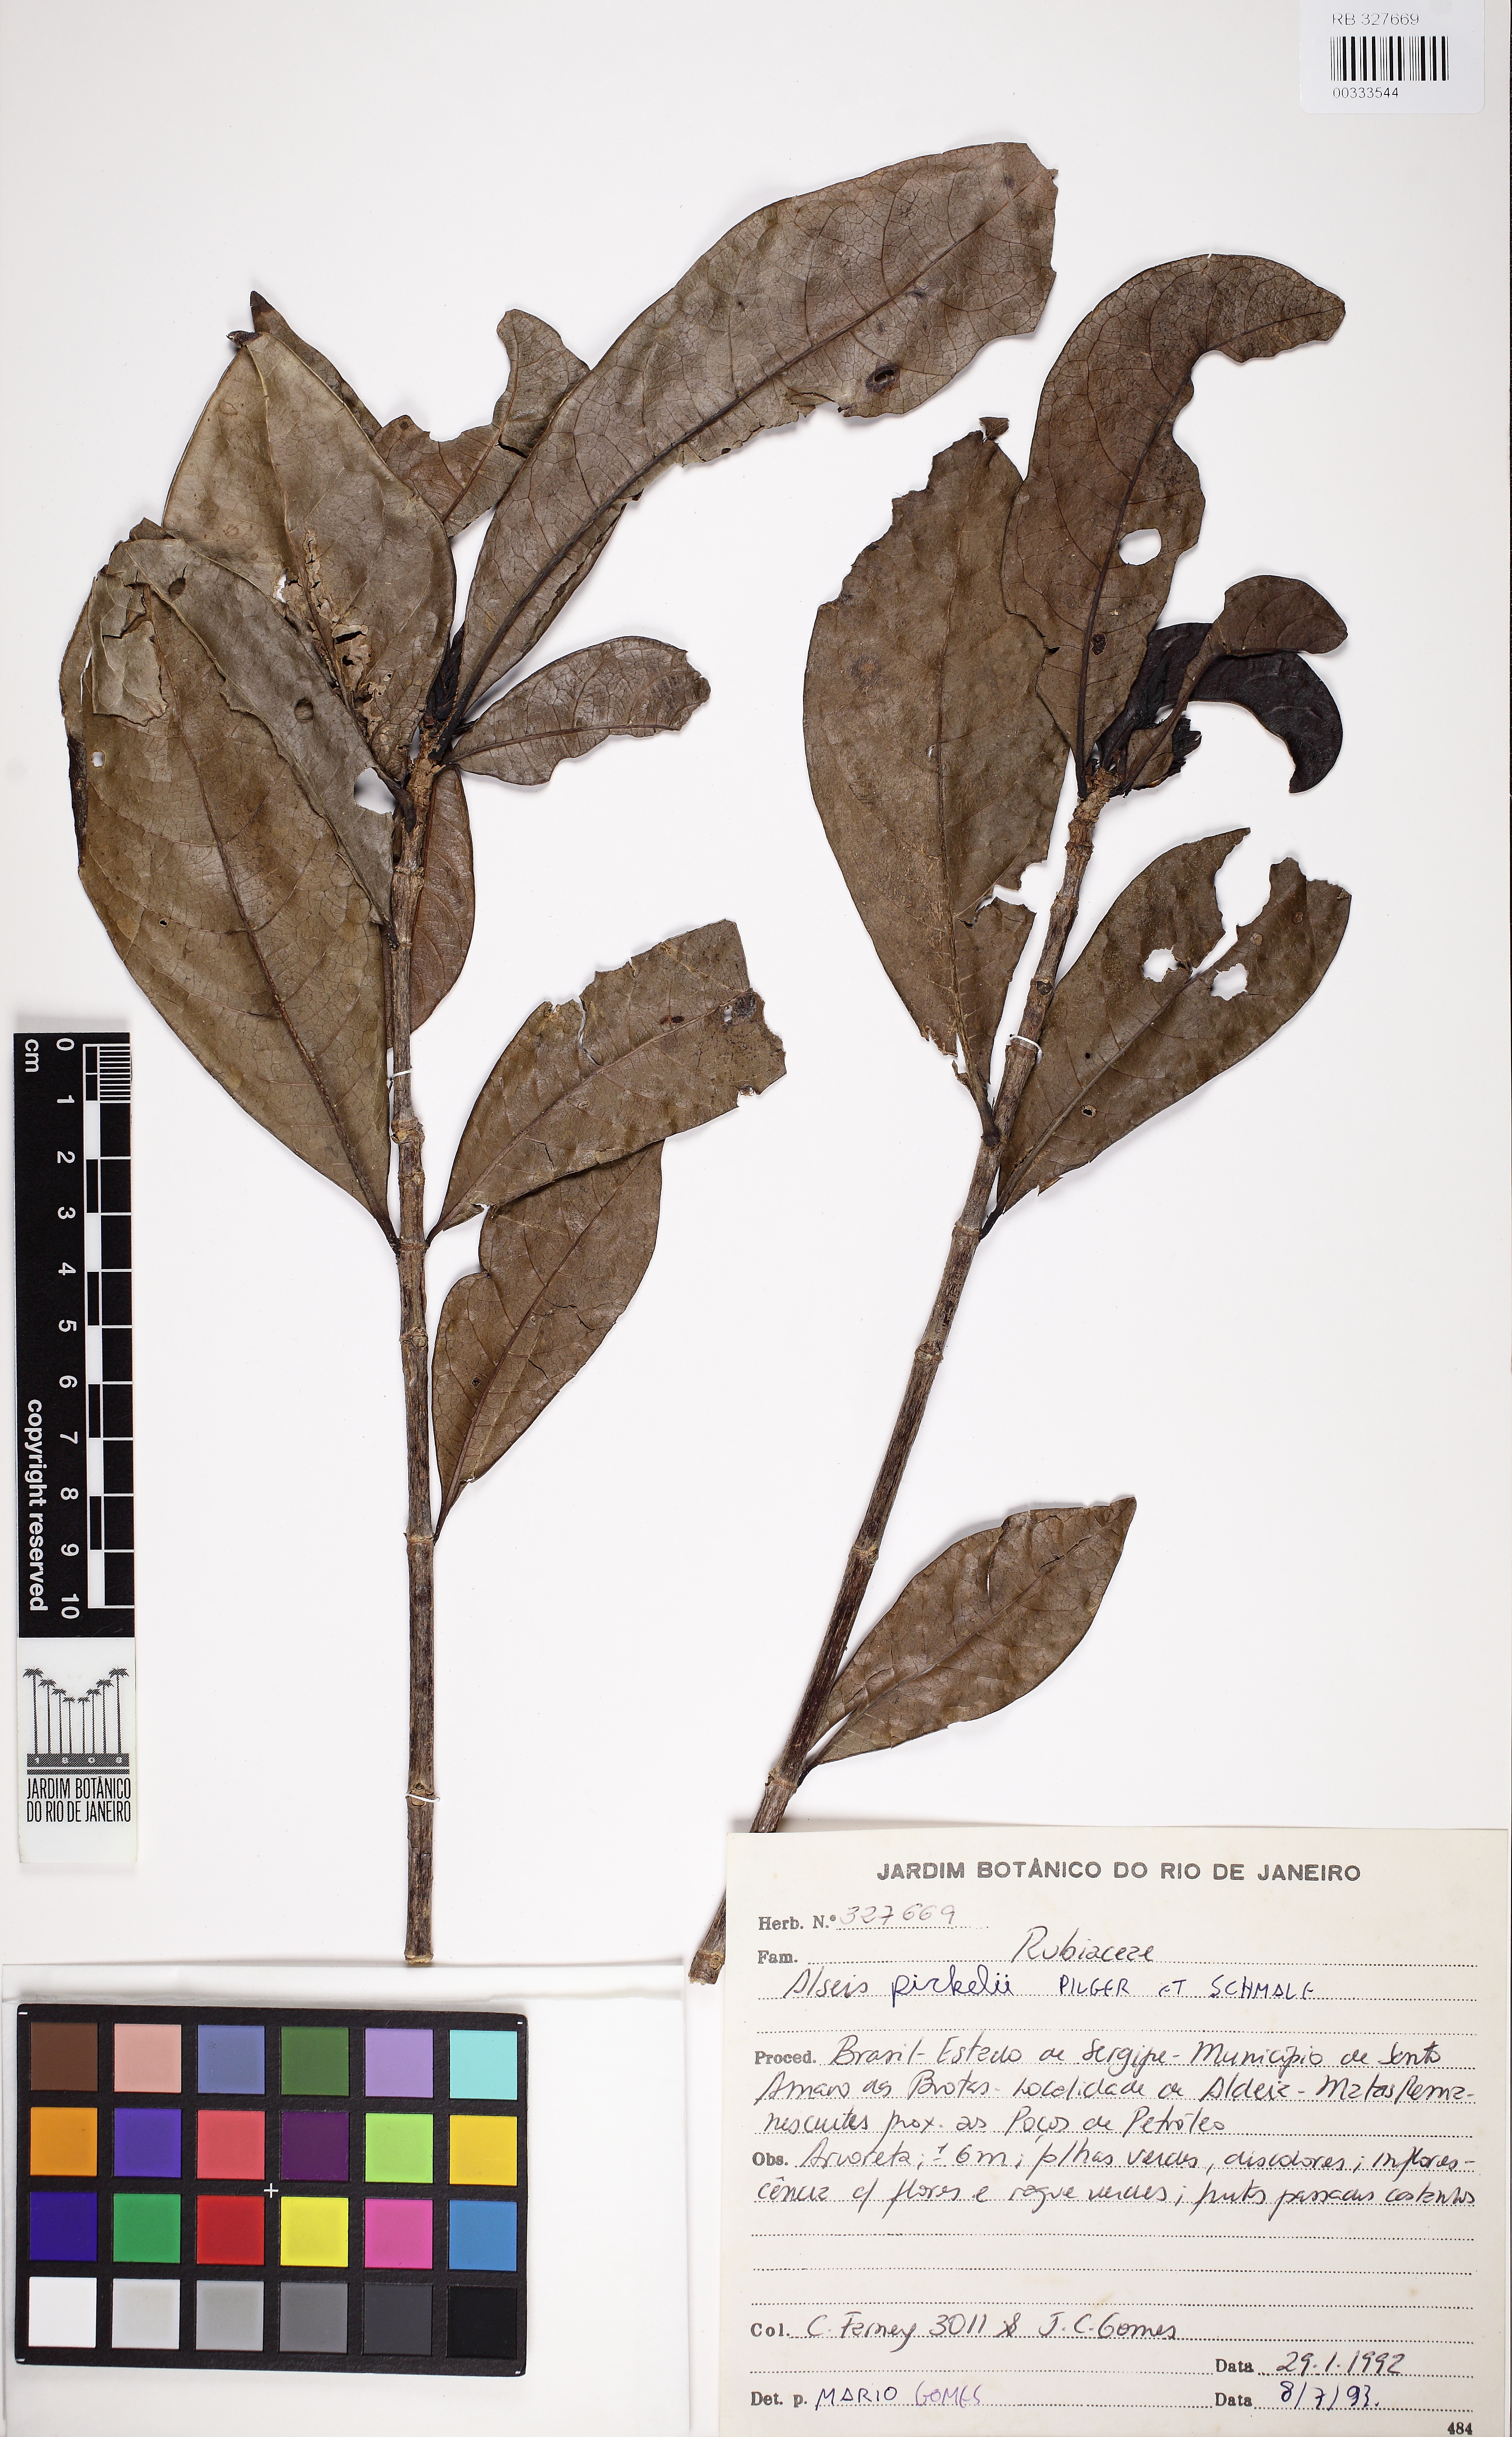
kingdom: Plantae
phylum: Tracheophyta
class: Magnoliopsida
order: Gentianales
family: Rubiaceae
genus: Alseis
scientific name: Alseis pickelii
